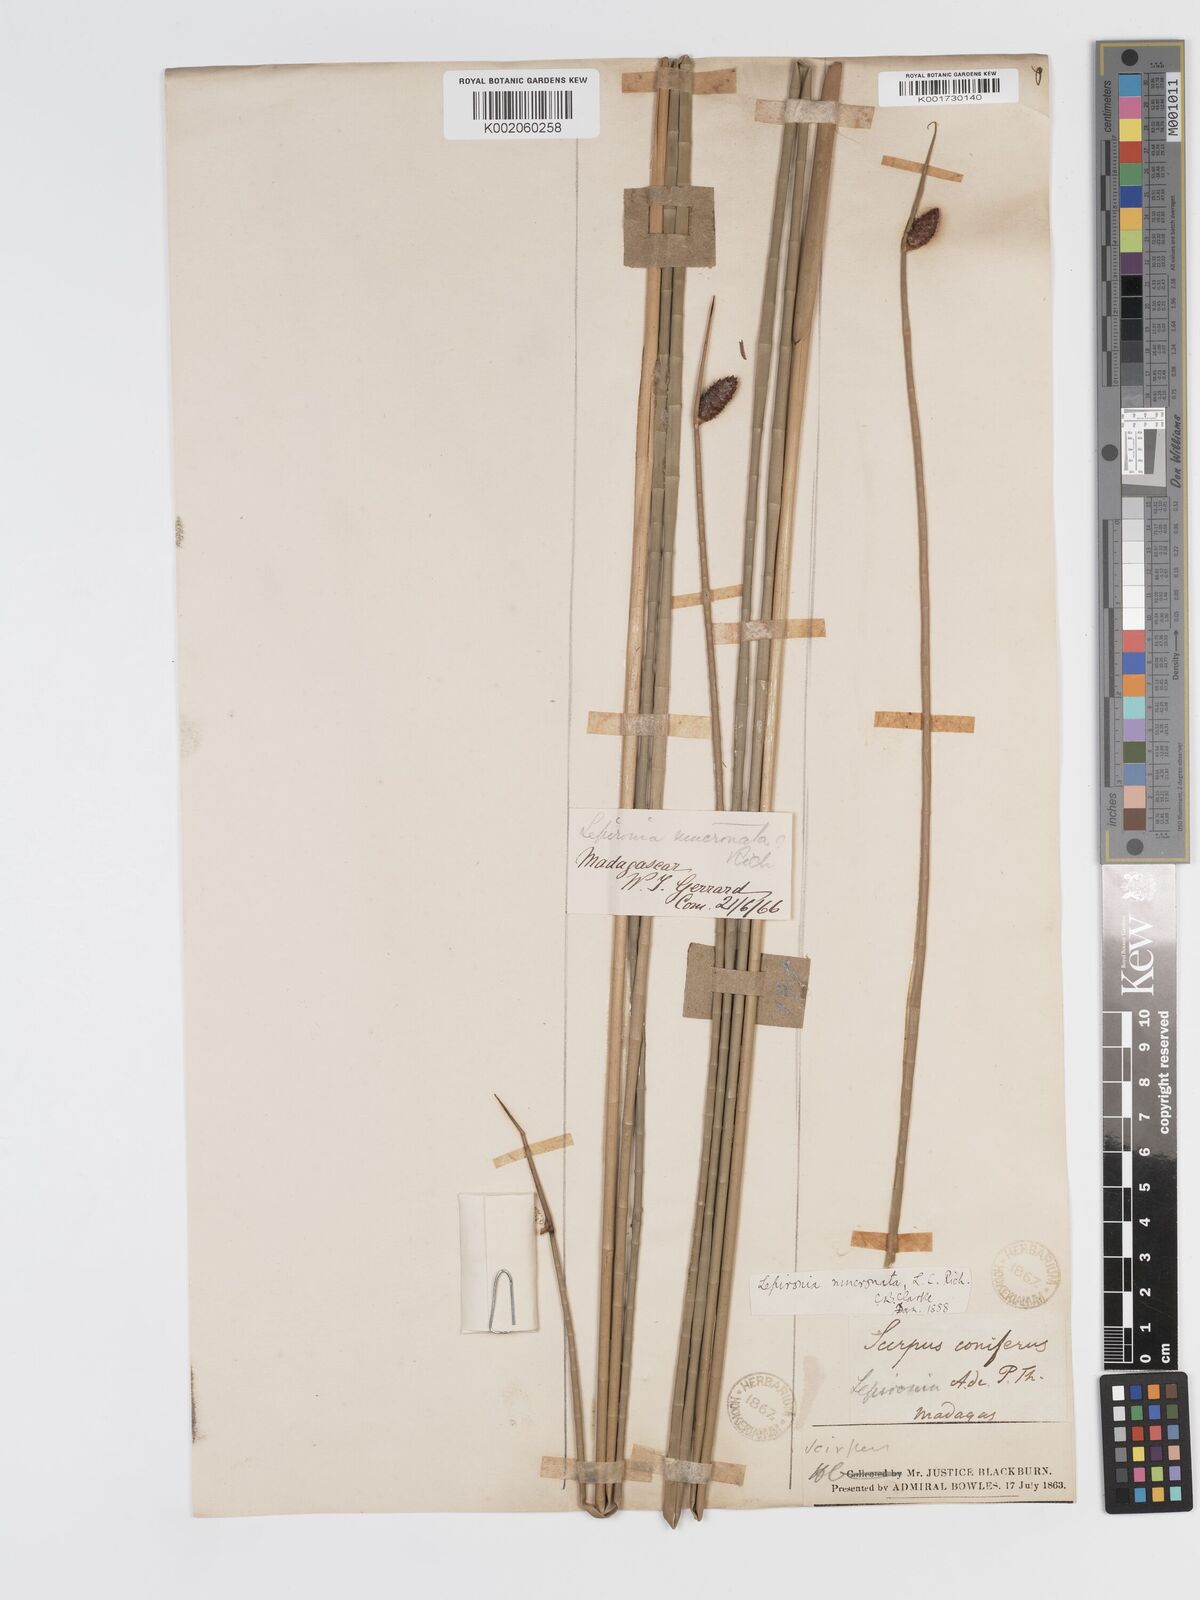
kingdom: Plantae
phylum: Tracheophyta
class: Liliopsida
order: Poales
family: Cyperaceae
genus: Lepironia
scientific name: Lepironia articulata
